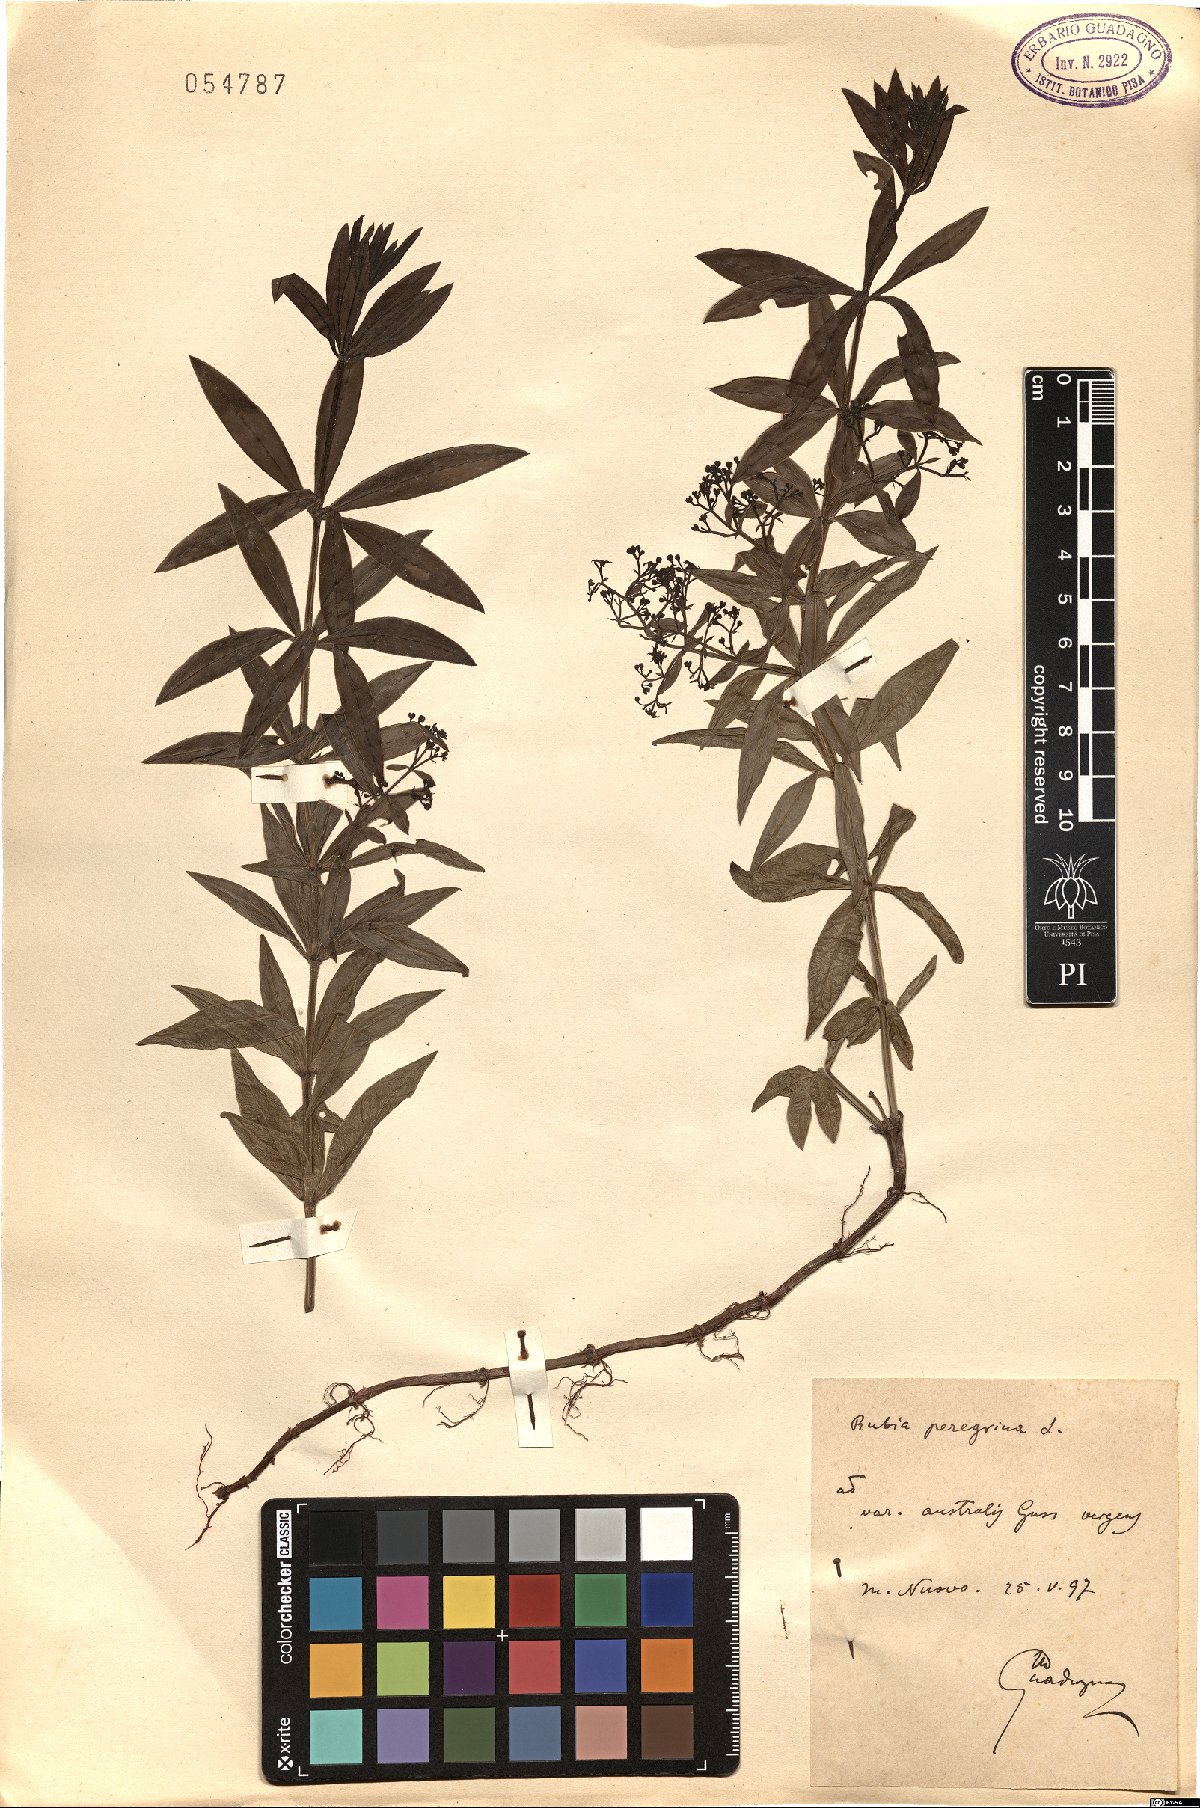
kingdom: Plantae
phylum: Tracheophyta
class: Magnoliopsida
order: Gentianales
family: Rubiaceae
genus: Rubia
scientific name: Rubia peregrina
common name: Wild madder
